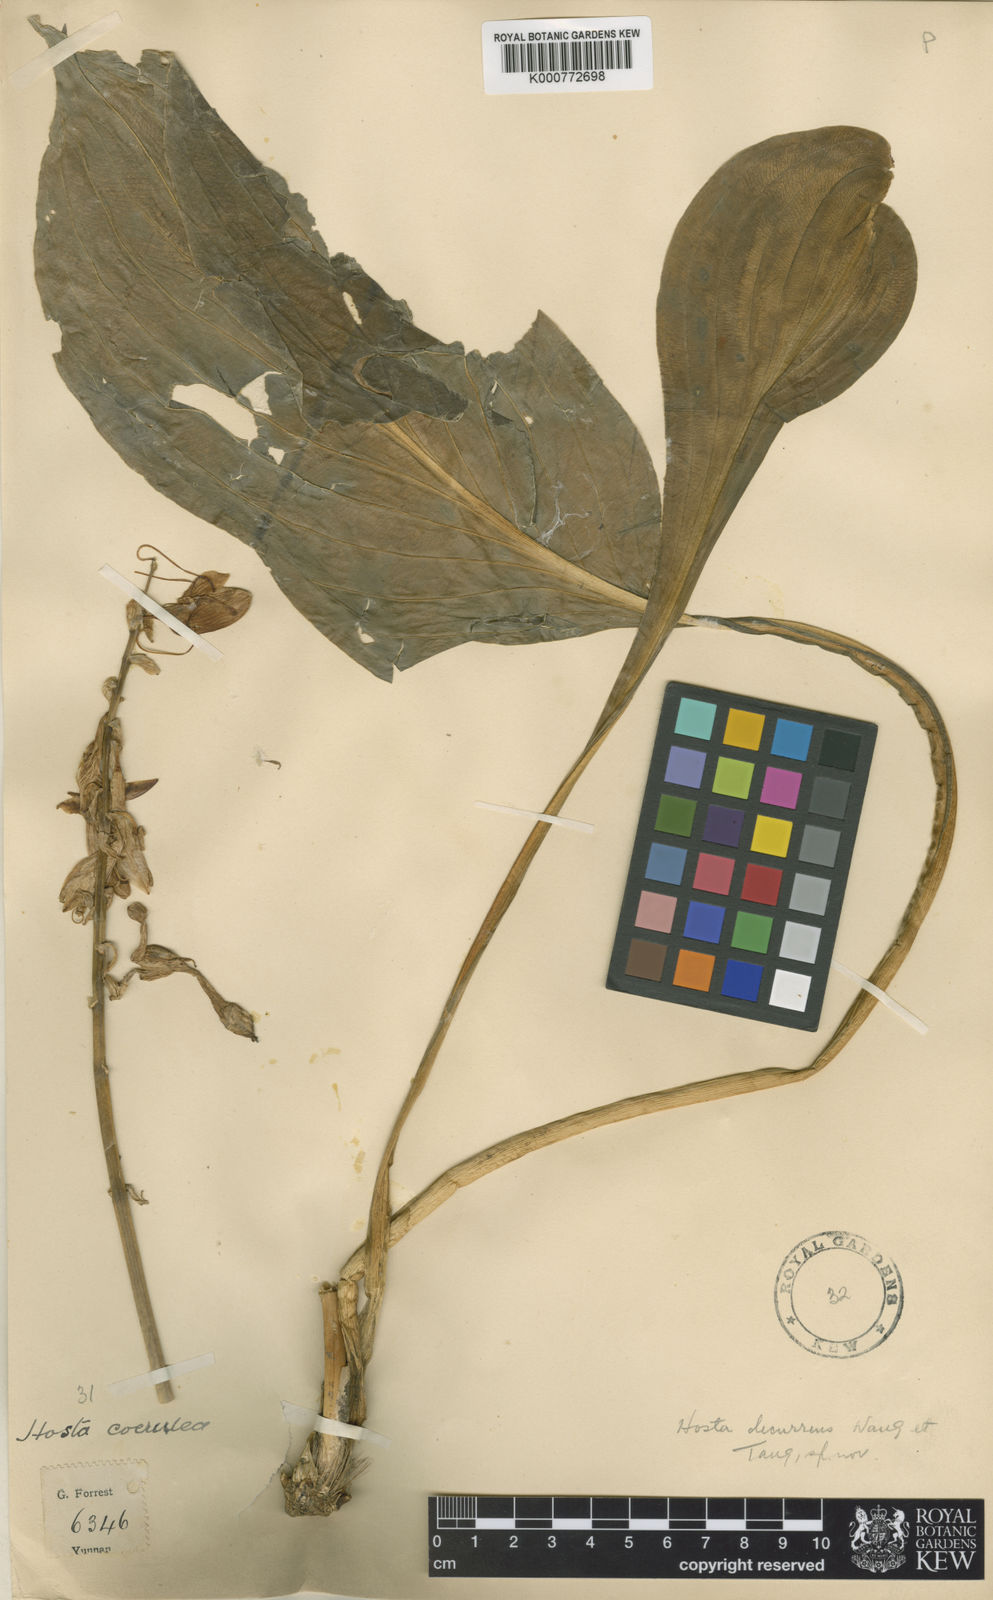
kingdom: Plantae
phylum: Tracheophyta
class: Liliopsida
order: Asparagales
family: Asparagaceae
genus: Hosta
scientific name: Hosta
